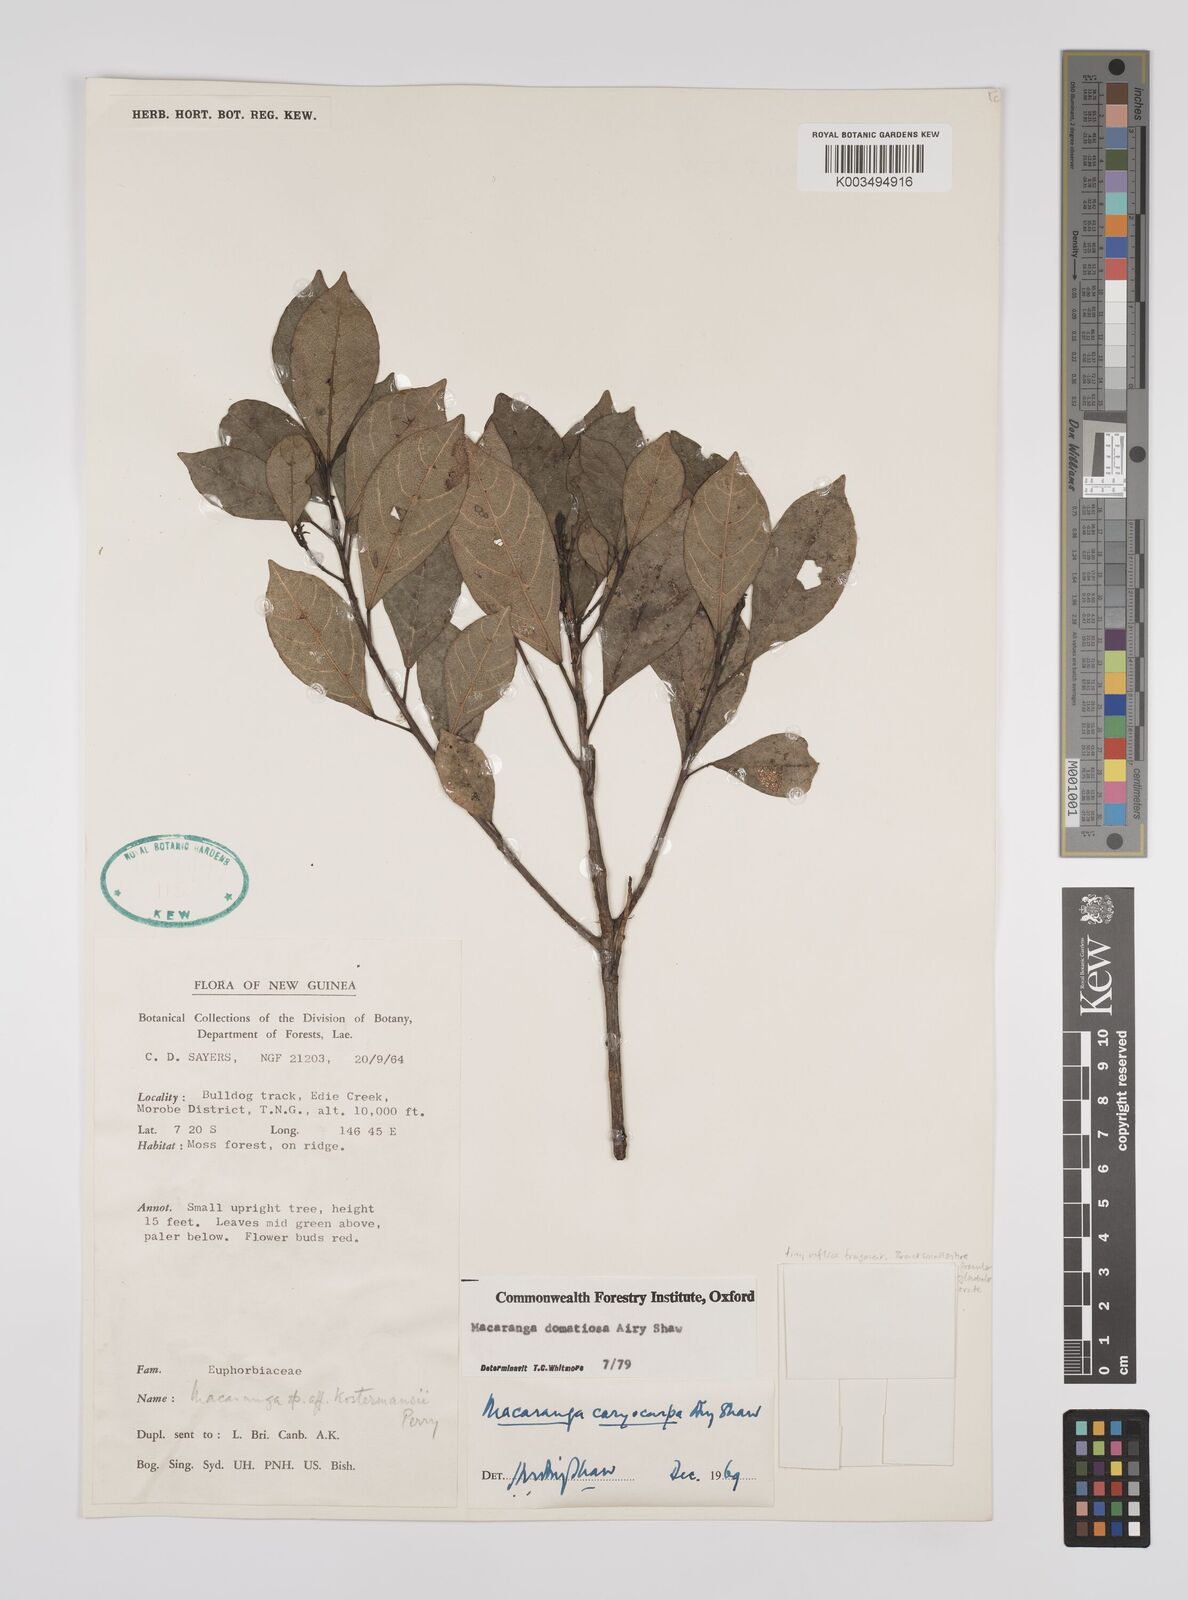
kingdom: Plantae
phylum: Tracheophyta
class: Magnoliopsida
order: Malpighiales
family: Euphorbiaceae
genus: Macaranga
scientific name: Macaranga domatiosa
